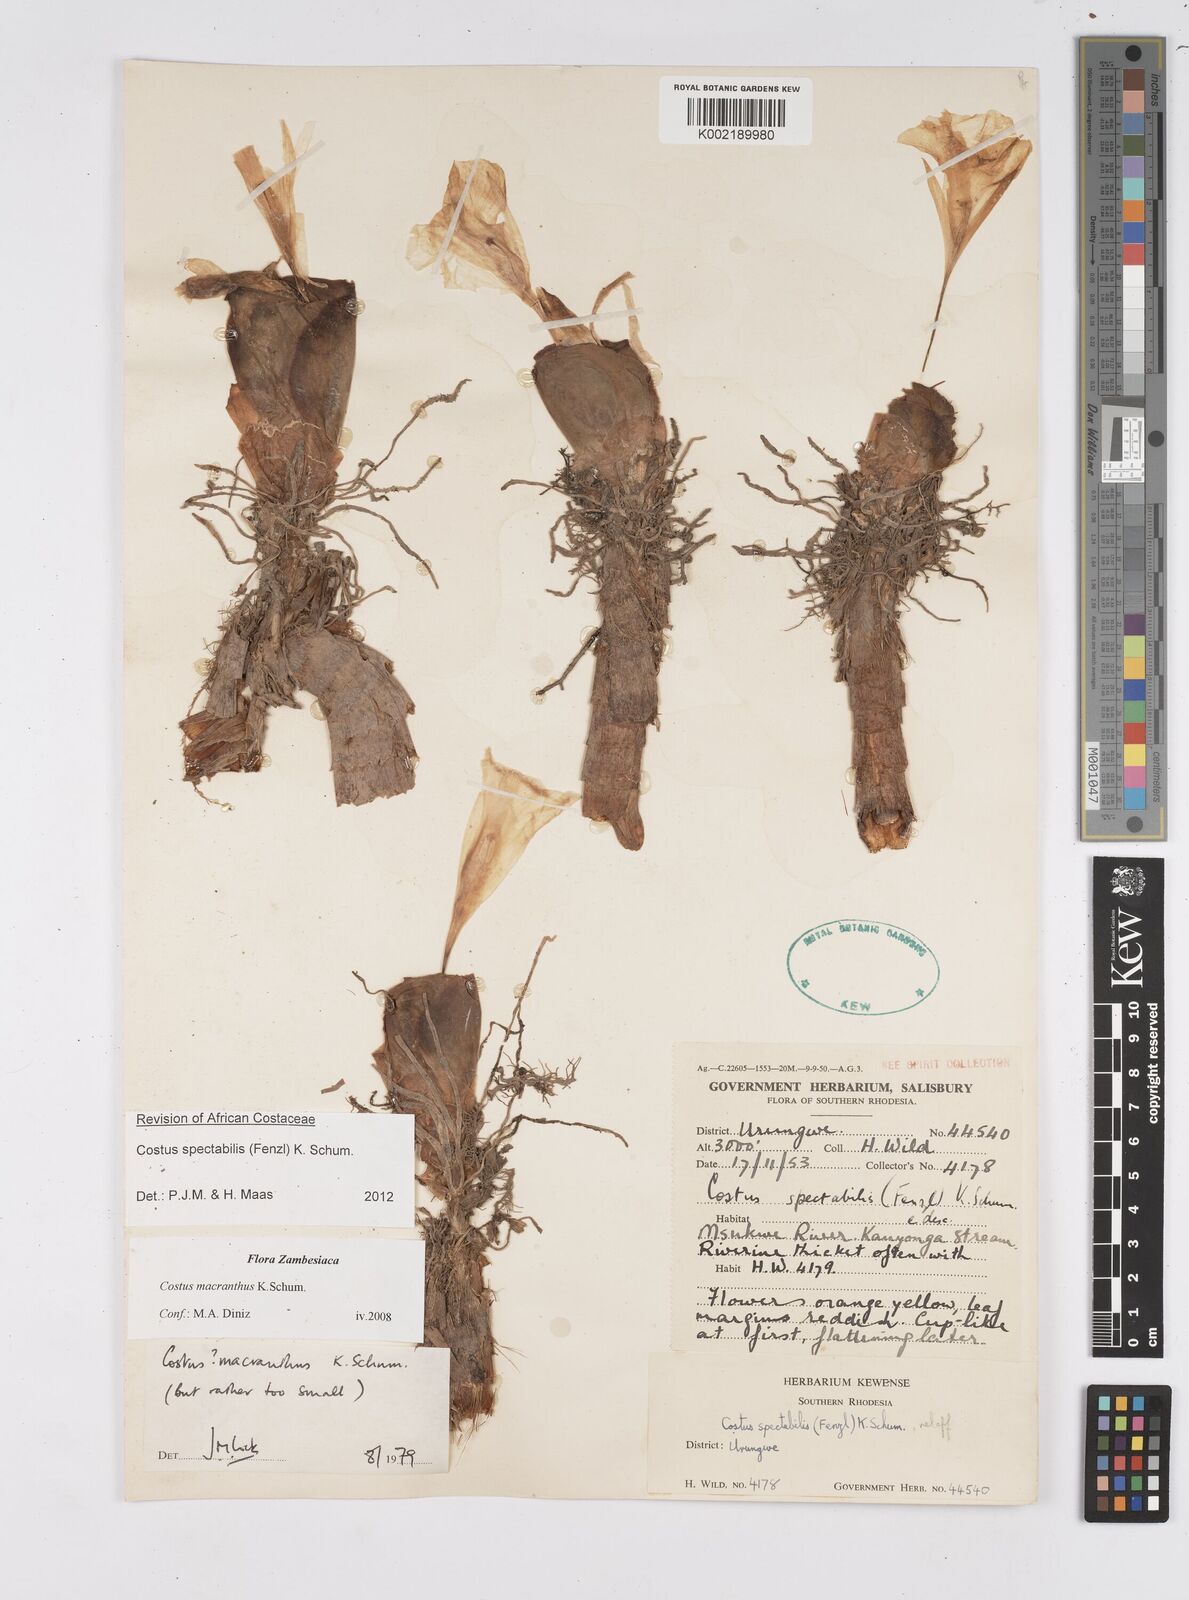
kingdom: Plantae
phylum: Tracheophyta
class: Liliopsida
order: Zingiberales
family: Costaceae
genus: Costus
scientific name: Costus spectabilis
